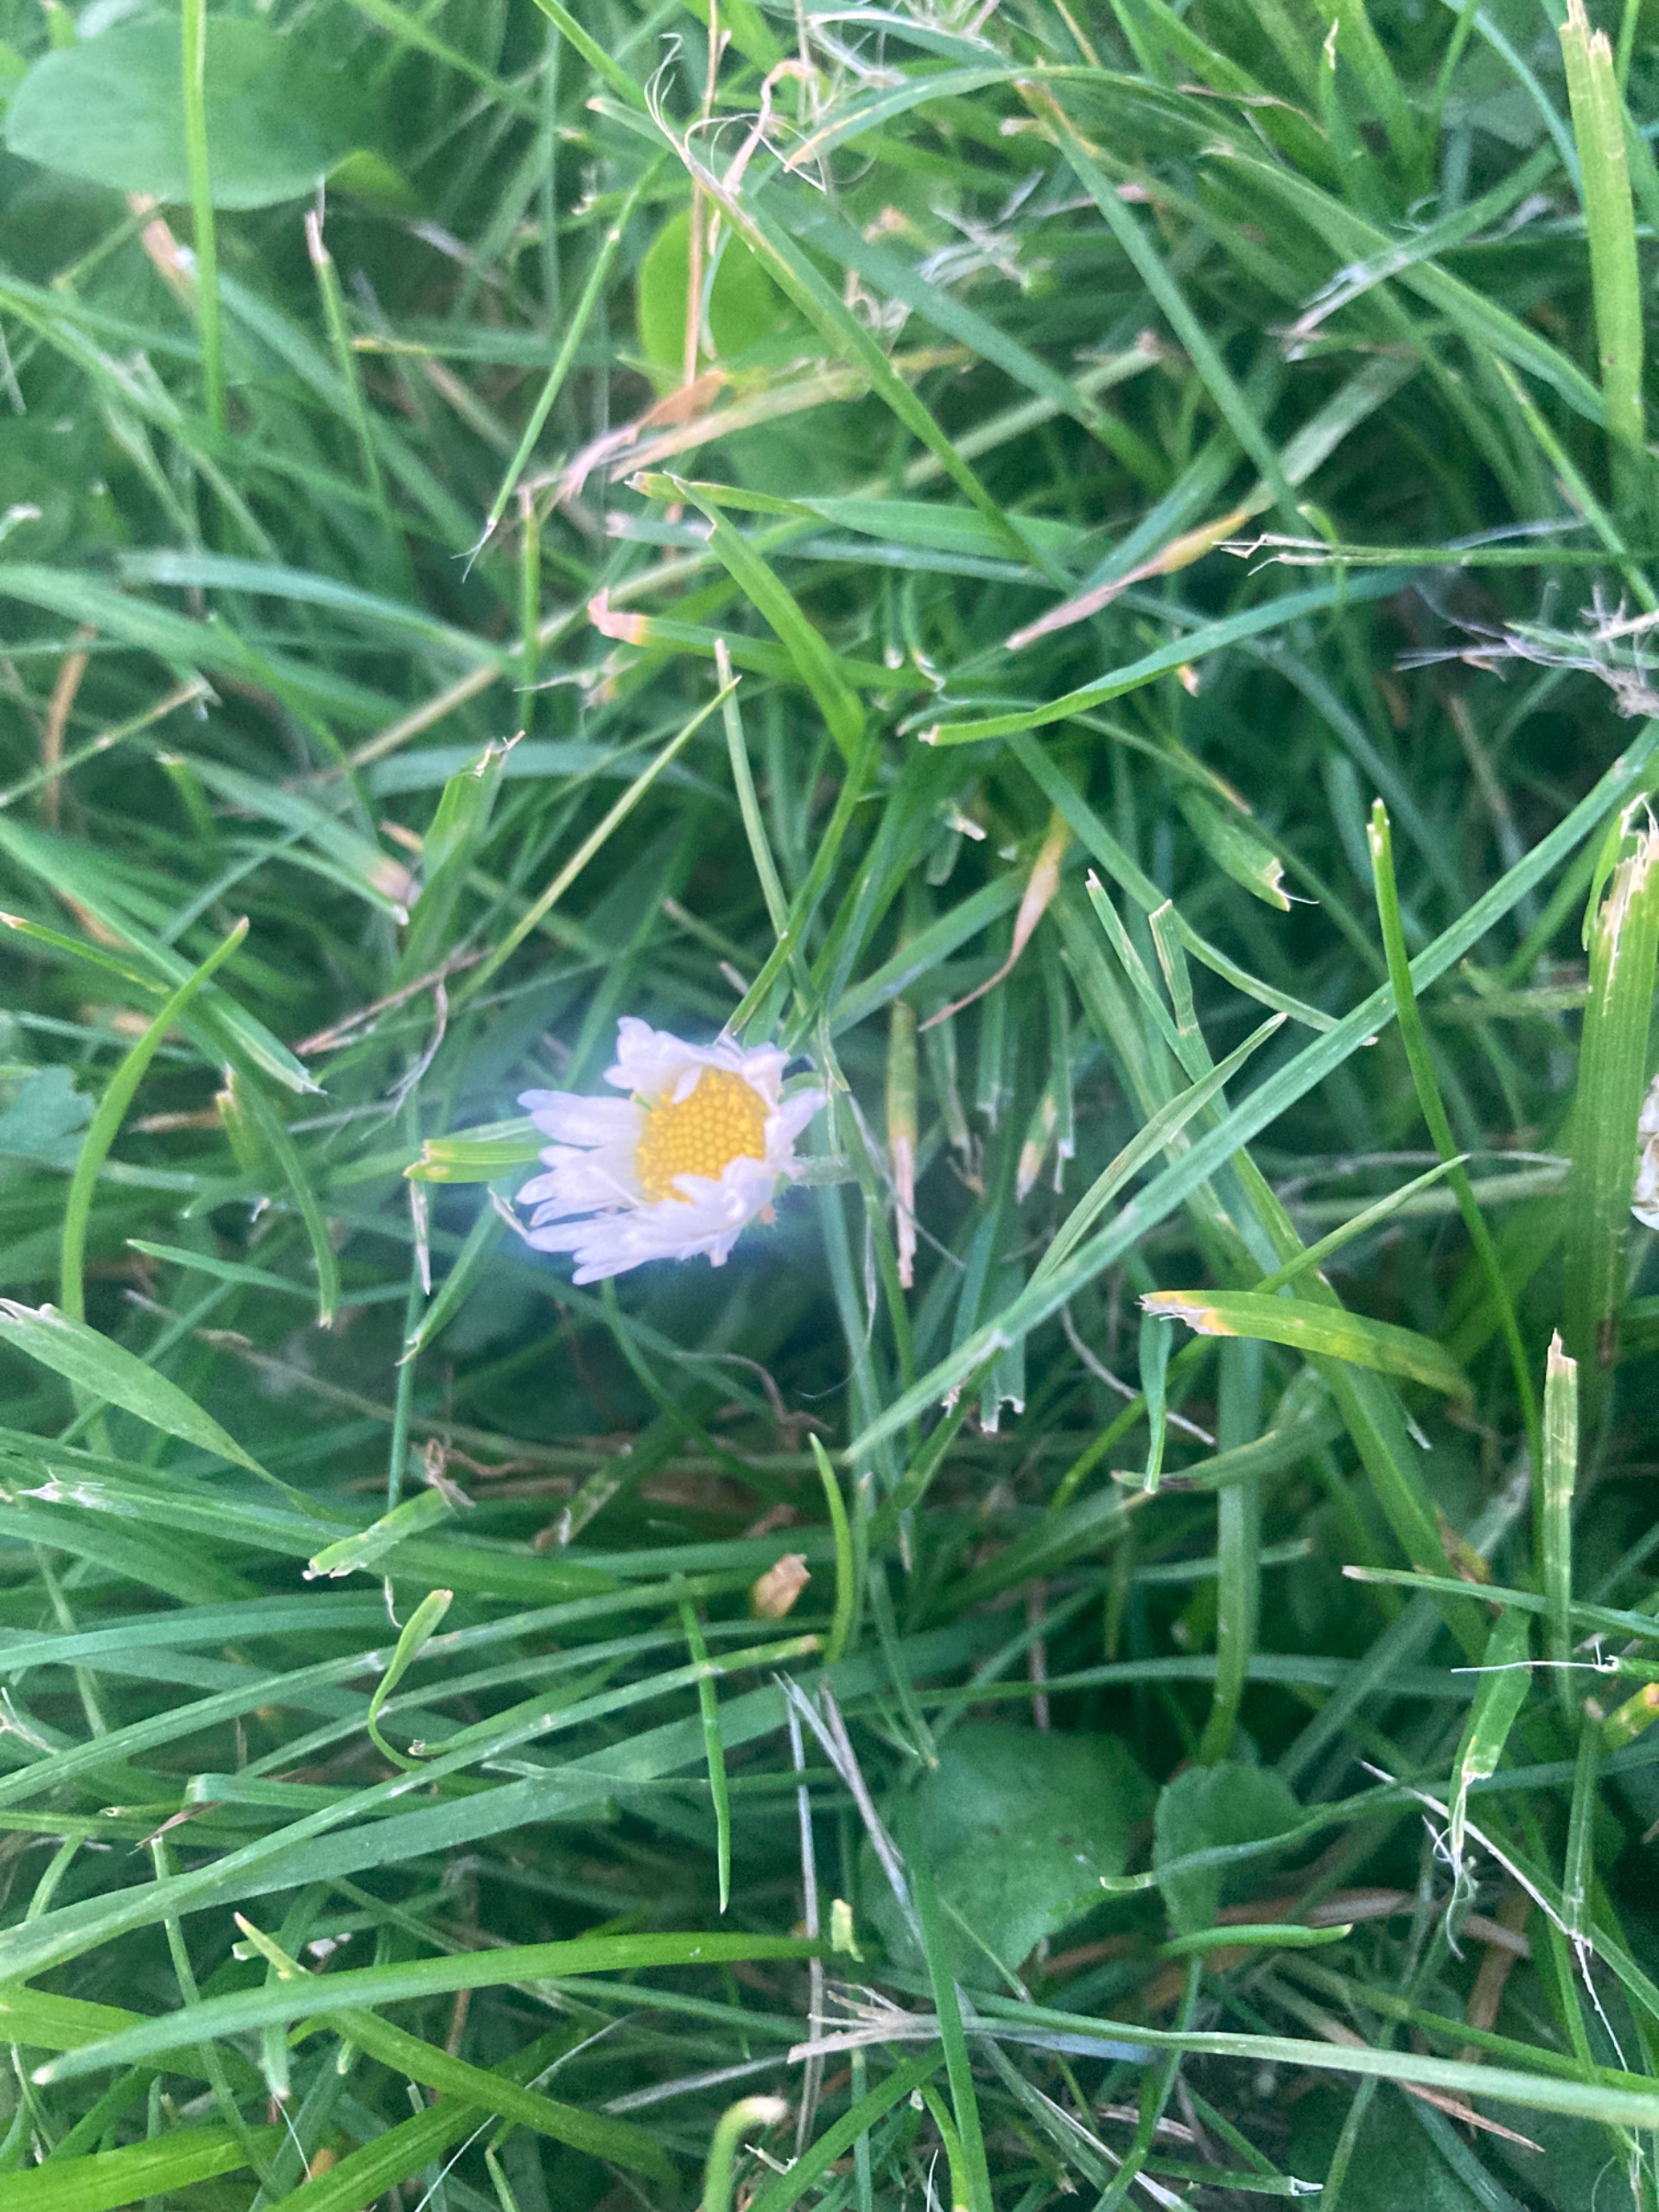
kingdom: Plantae
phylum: Tracheophyta
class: Magnoliopsida
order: Asterales
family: Asteraceae
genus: Bellis
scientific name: Bellis perennis
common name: Tusindfryd
